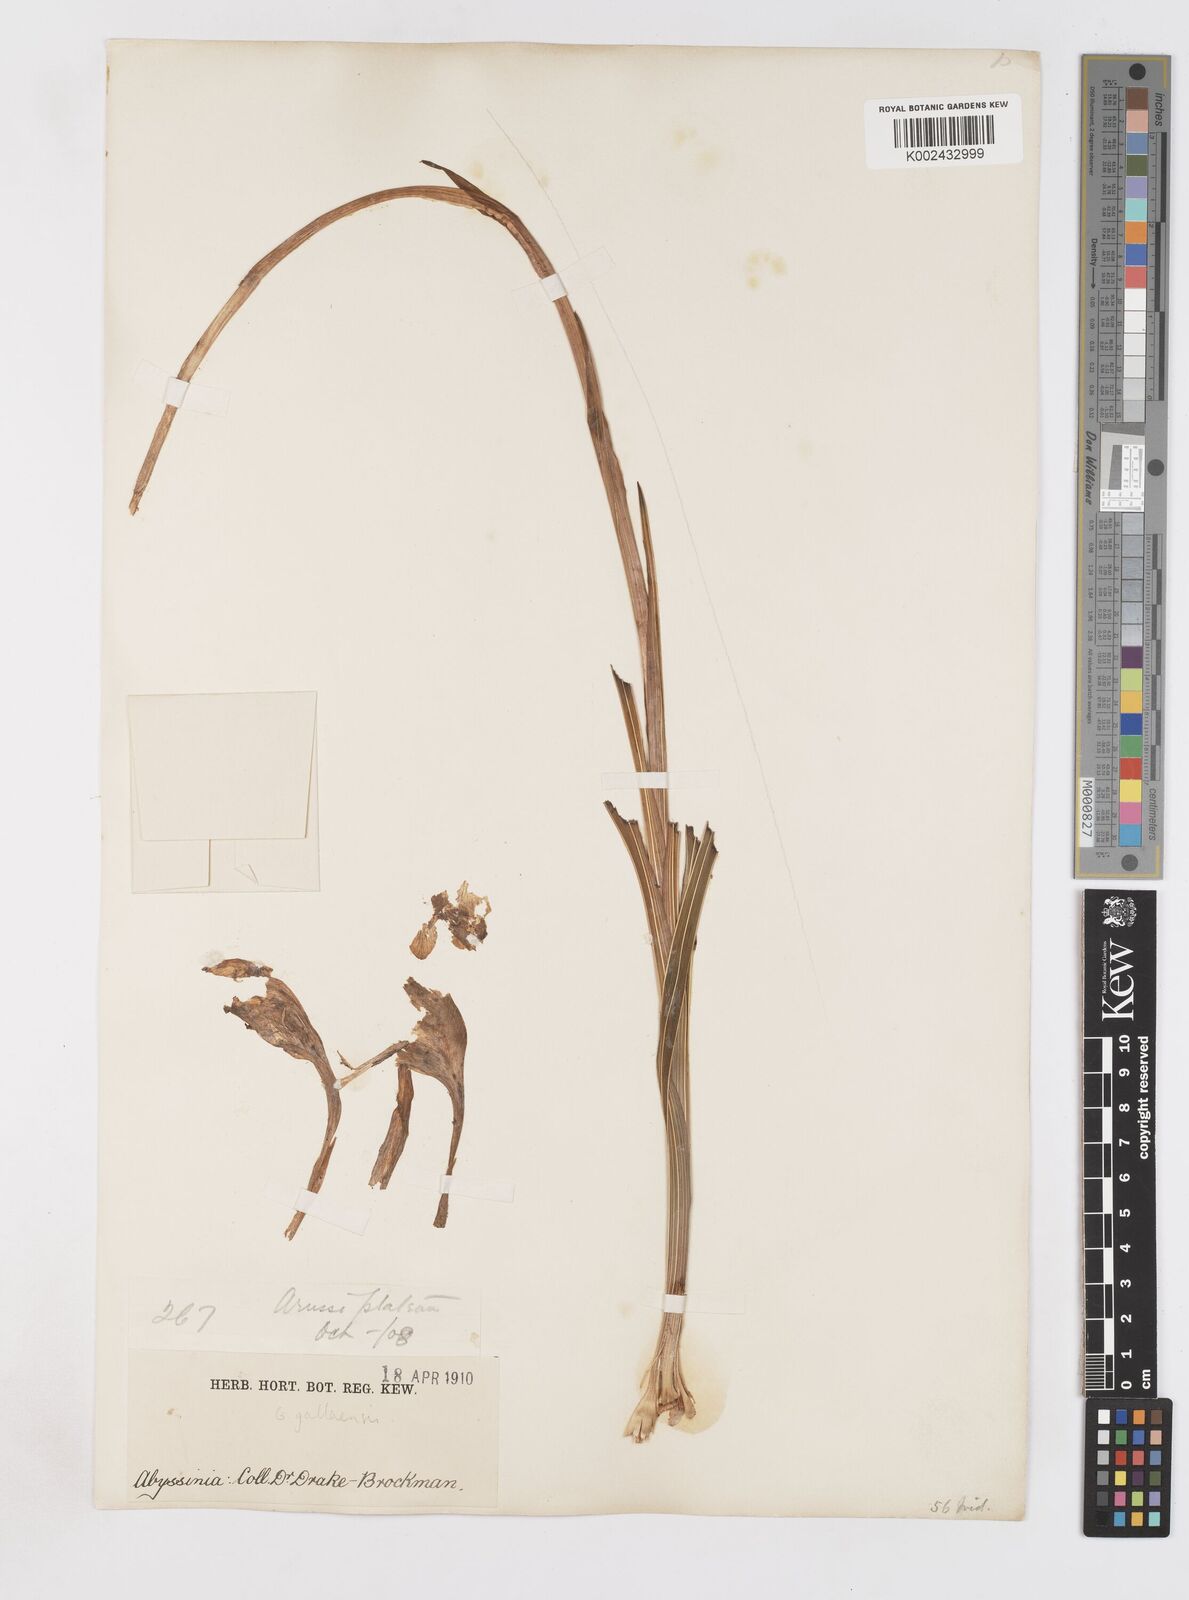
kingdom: Plantae
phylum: Tracheophyta
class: Liliopsida
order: Asparagales
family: Iridaceae
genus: Gladiolus
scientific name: Gladiolus dalenii
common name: Cornflag
